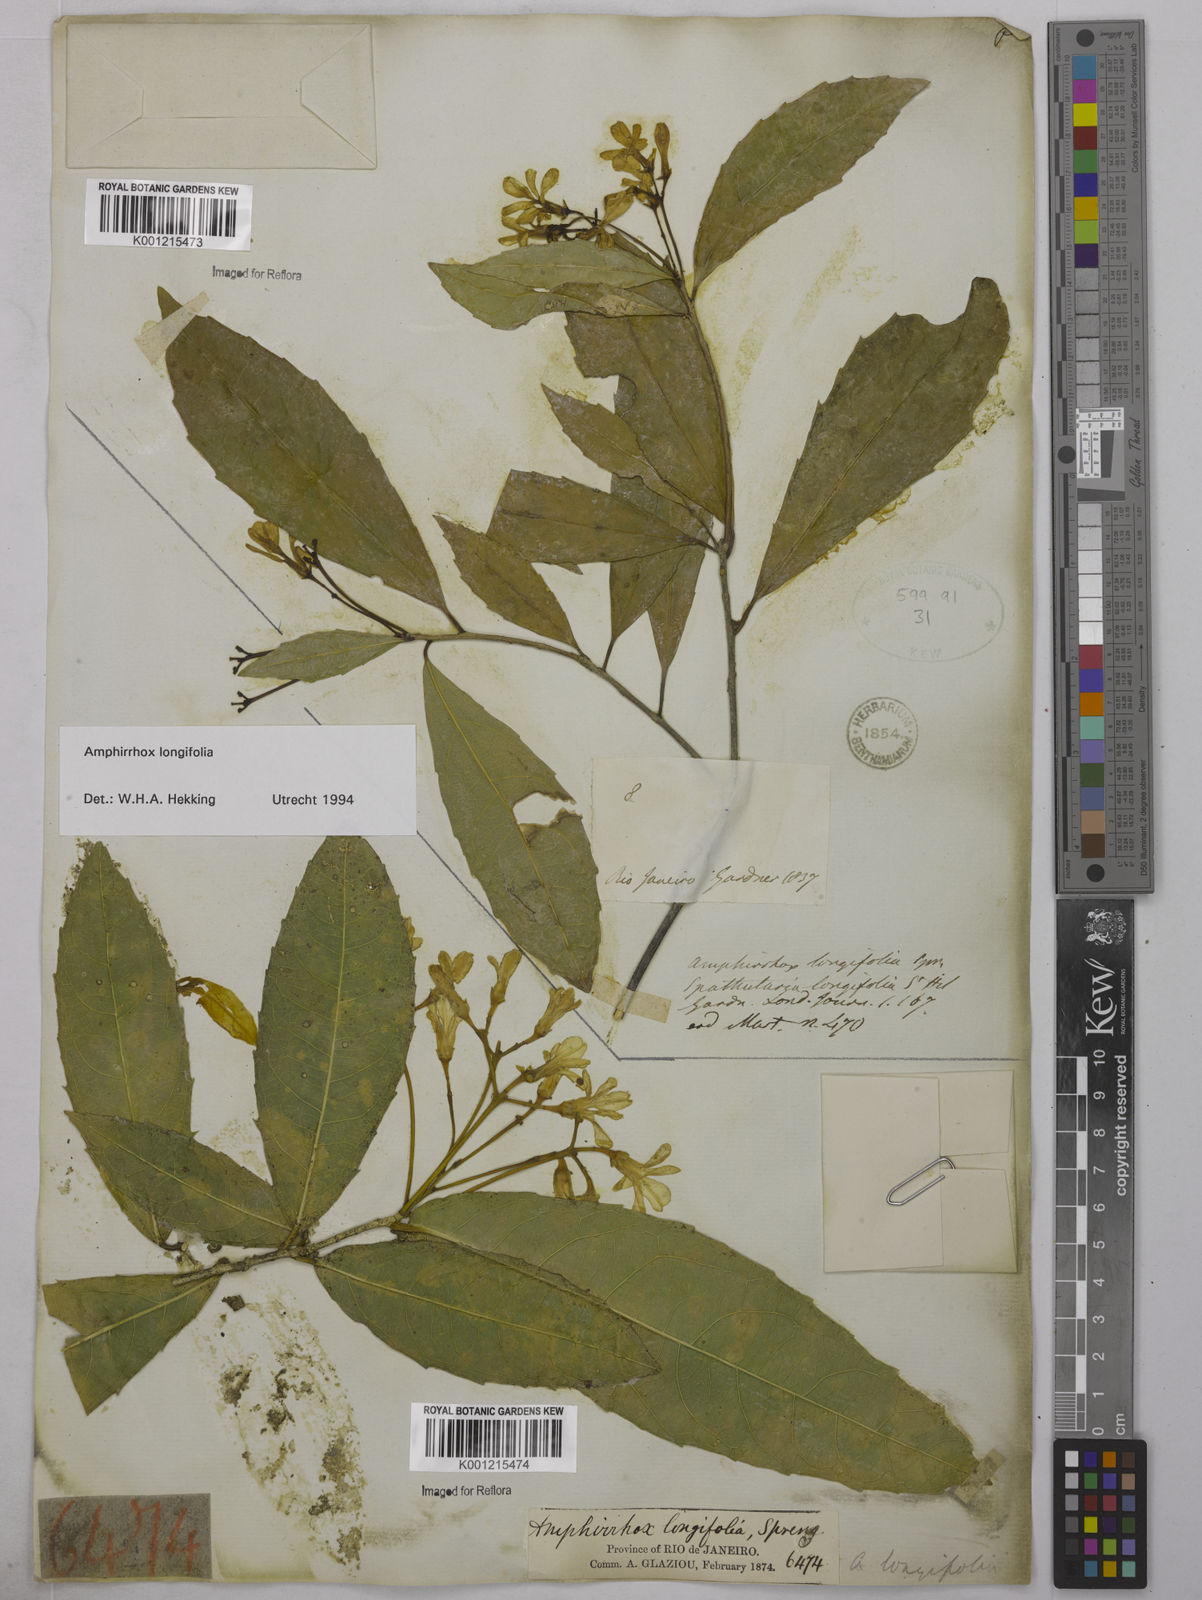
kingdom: Plantae
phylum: Tracheophyta
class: Magnoliopsida
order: Malpighiales
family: Violaceae
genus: Amphirrhox
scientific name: Amphirrhox longifolia
